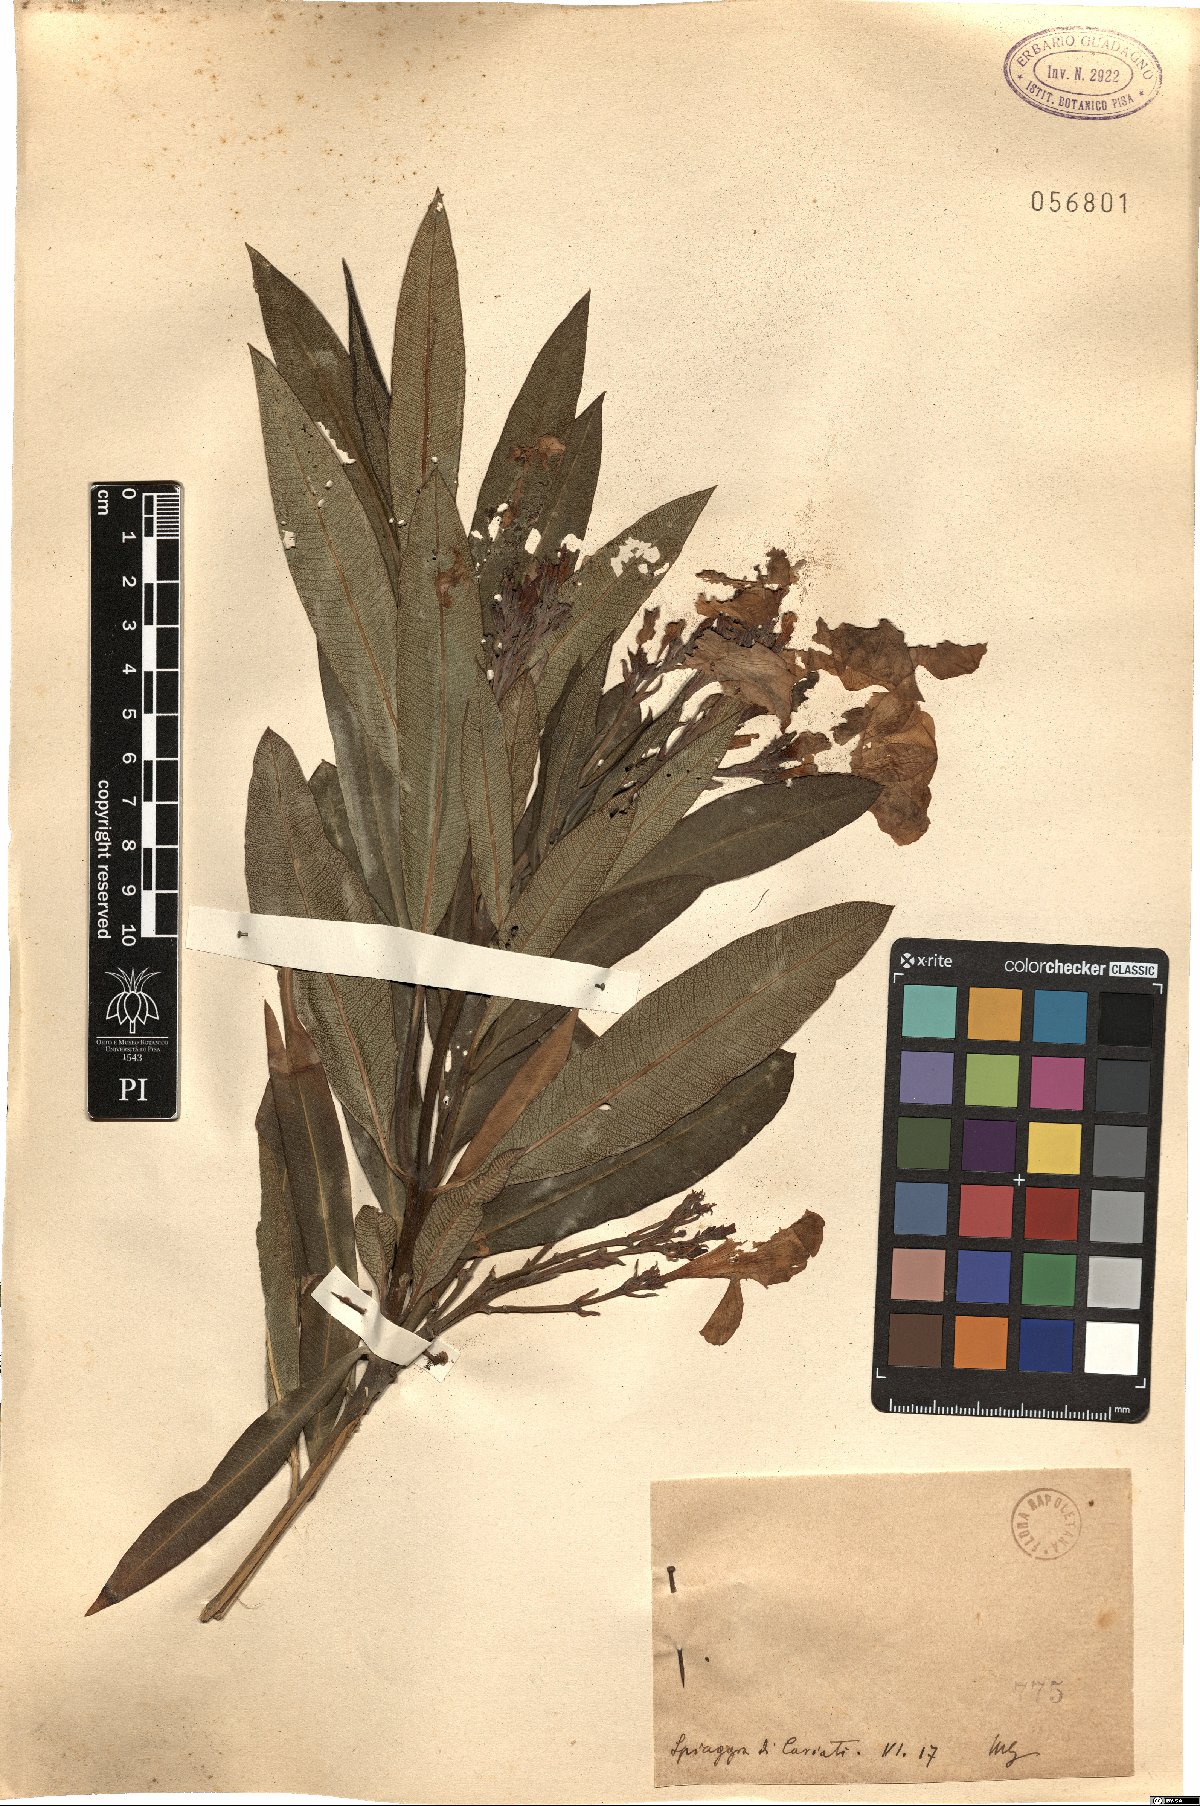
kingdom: Plantae
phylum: Tracheophyta
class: Magnoliopsida
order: Gentianales
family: Apocynaceae
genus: Nerium
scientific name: Nerium
